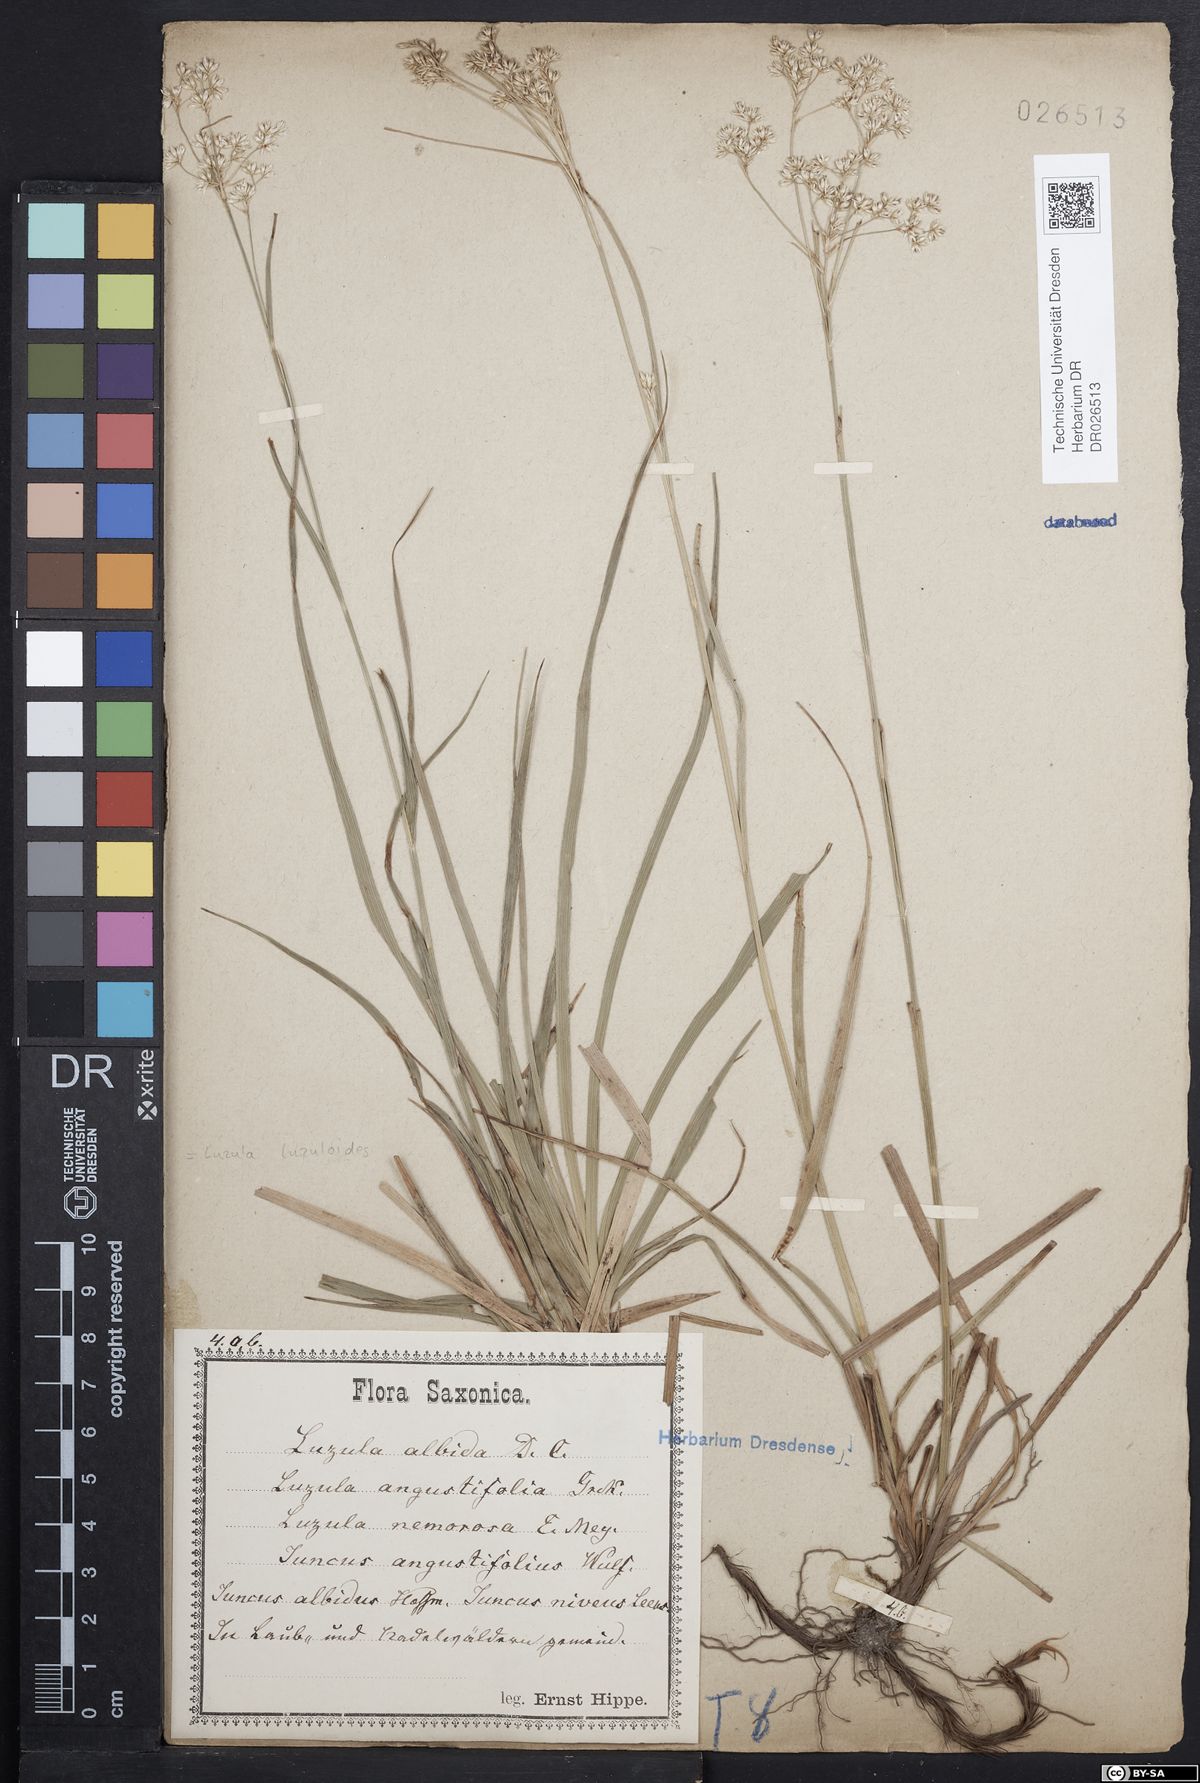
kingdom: Plantae
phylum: Tracheophyta
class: Liliopsida
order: Poales
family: Juncaceae
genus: Luzula
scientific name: Luzula luzuloides
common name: White wood-rush
